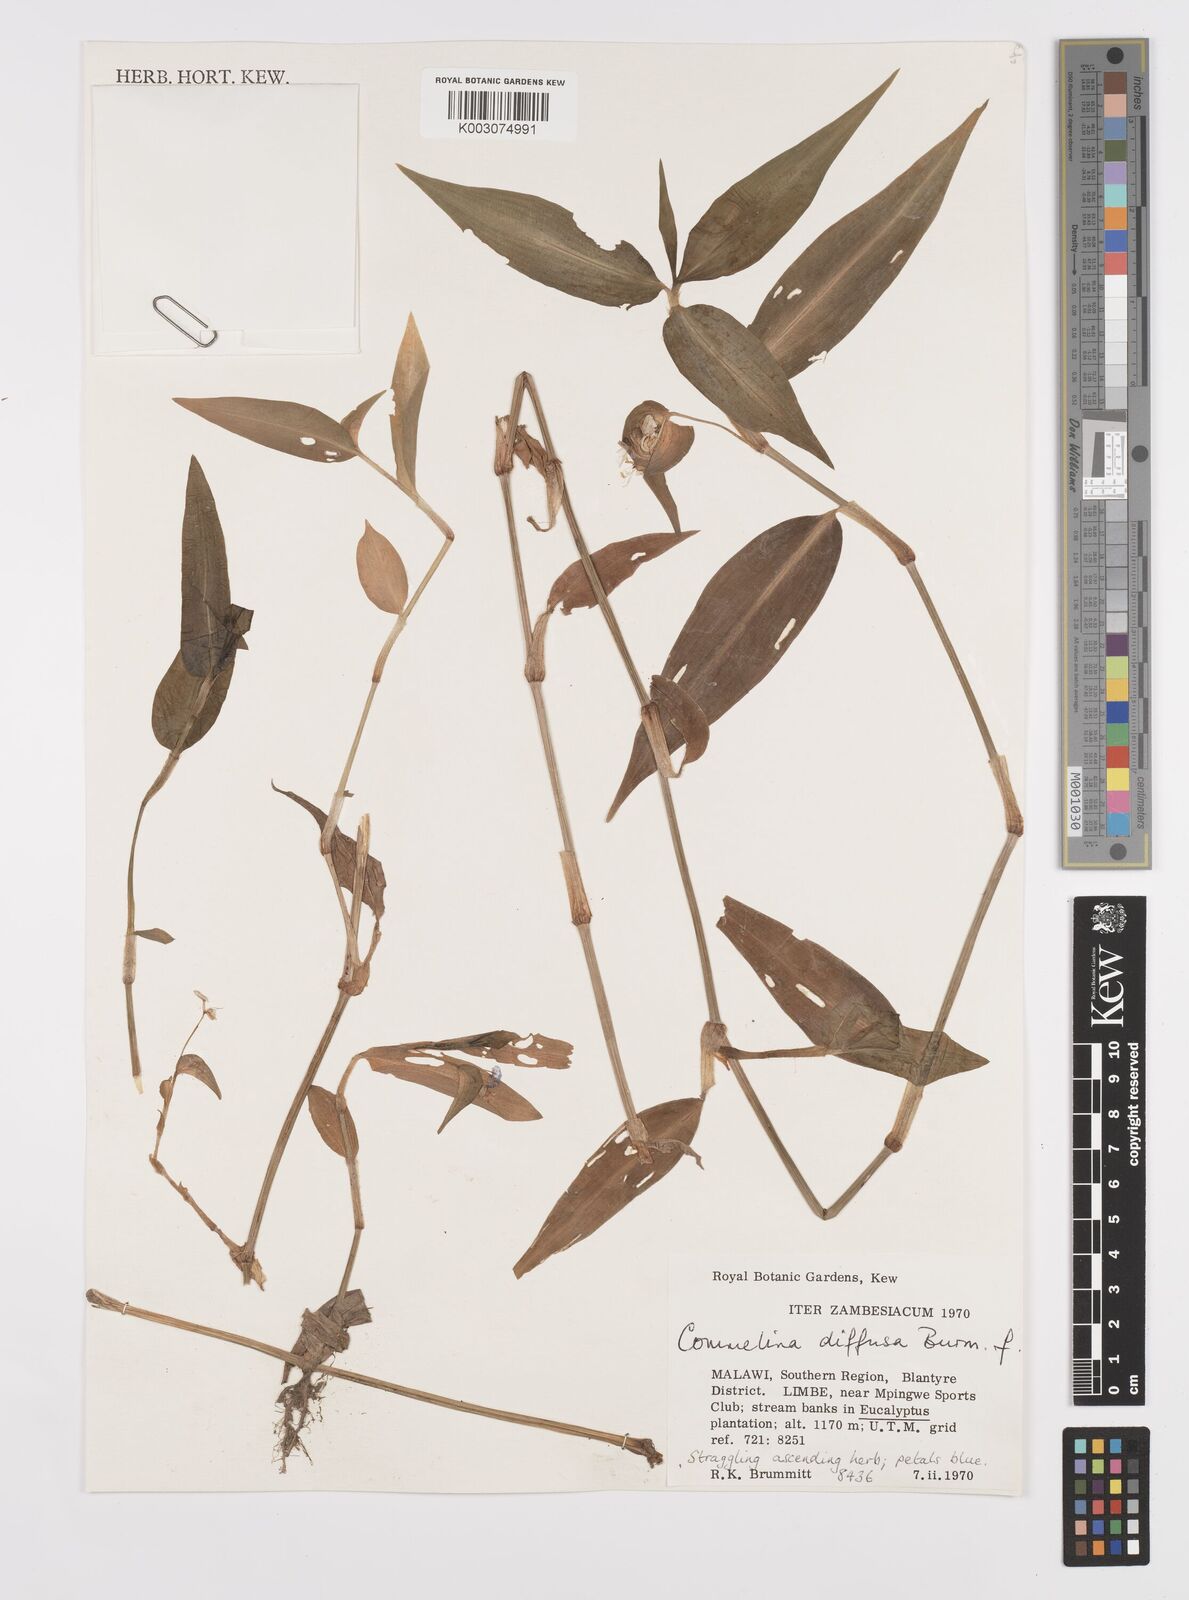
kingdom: Plantae
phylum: Tracheophyta
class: Liliopsida
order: Commelinales
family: Commelinaceae
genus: Commelina
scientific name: Commelina diffusa
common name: Climbing dayflower
